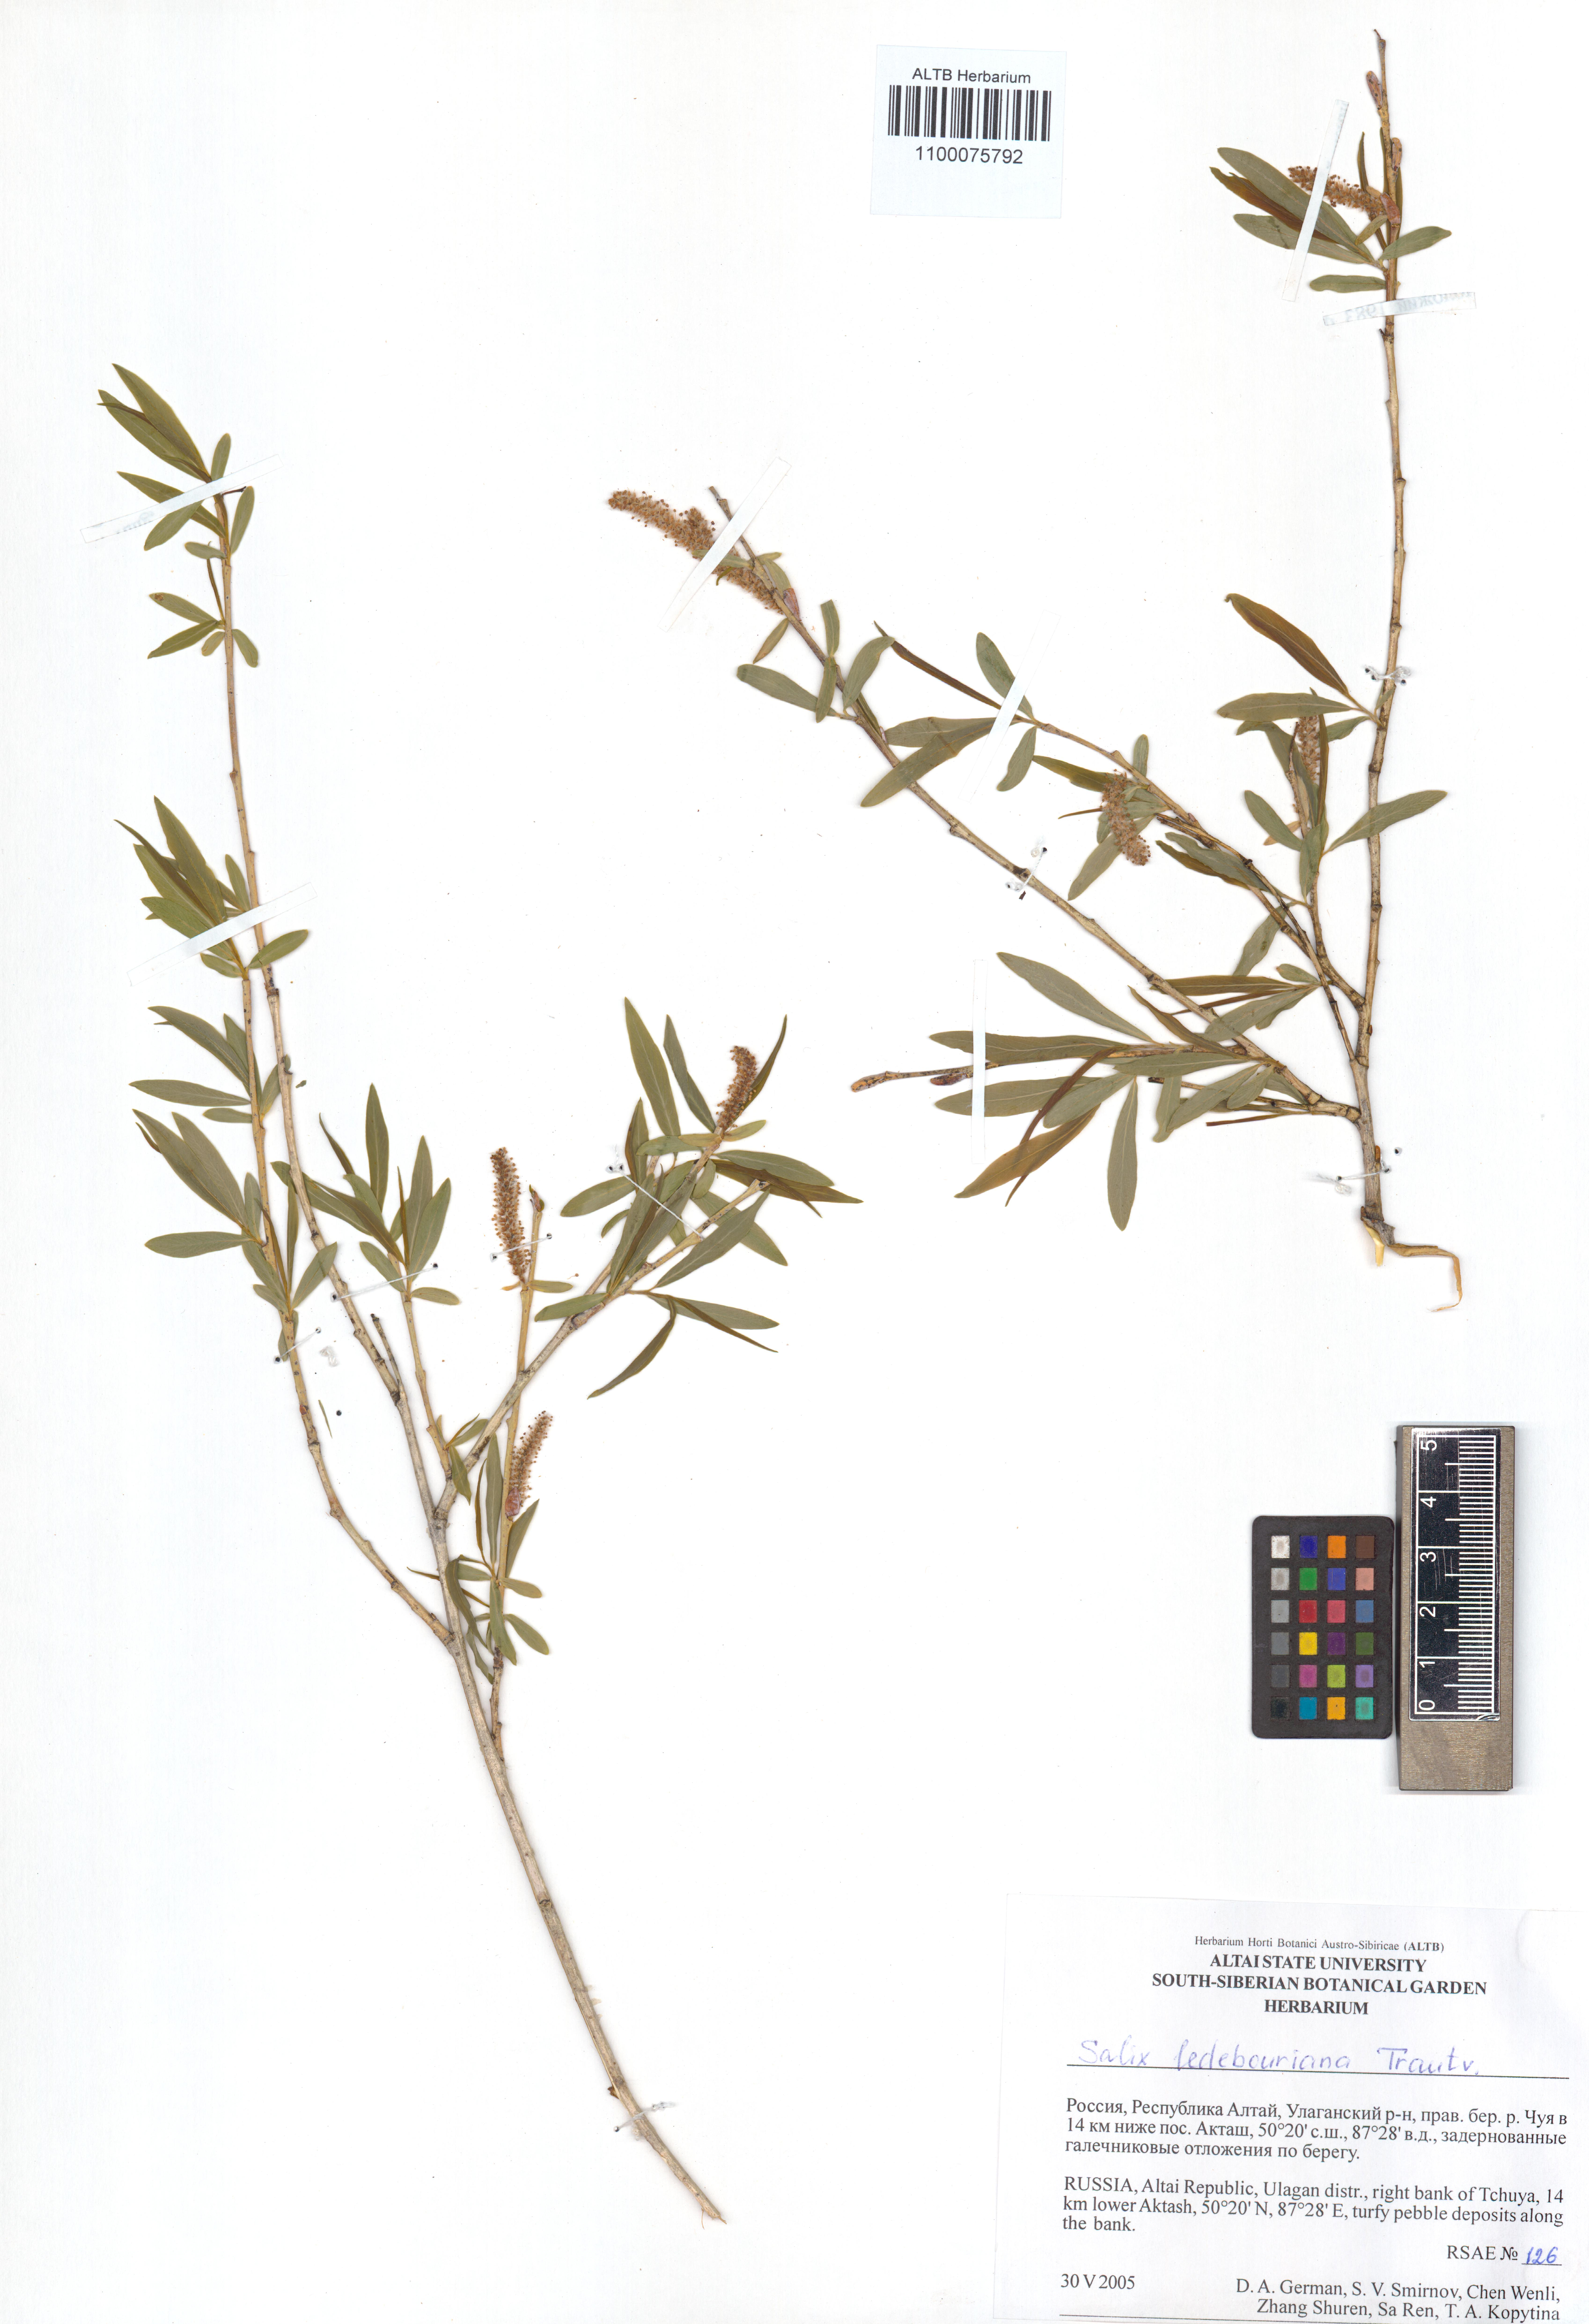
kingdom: Plantae
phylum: Tracheophyta
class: Magnoliopsida
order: Malpighiales
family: Salicaceae
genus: Salix
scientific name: Salix ledebouriana
